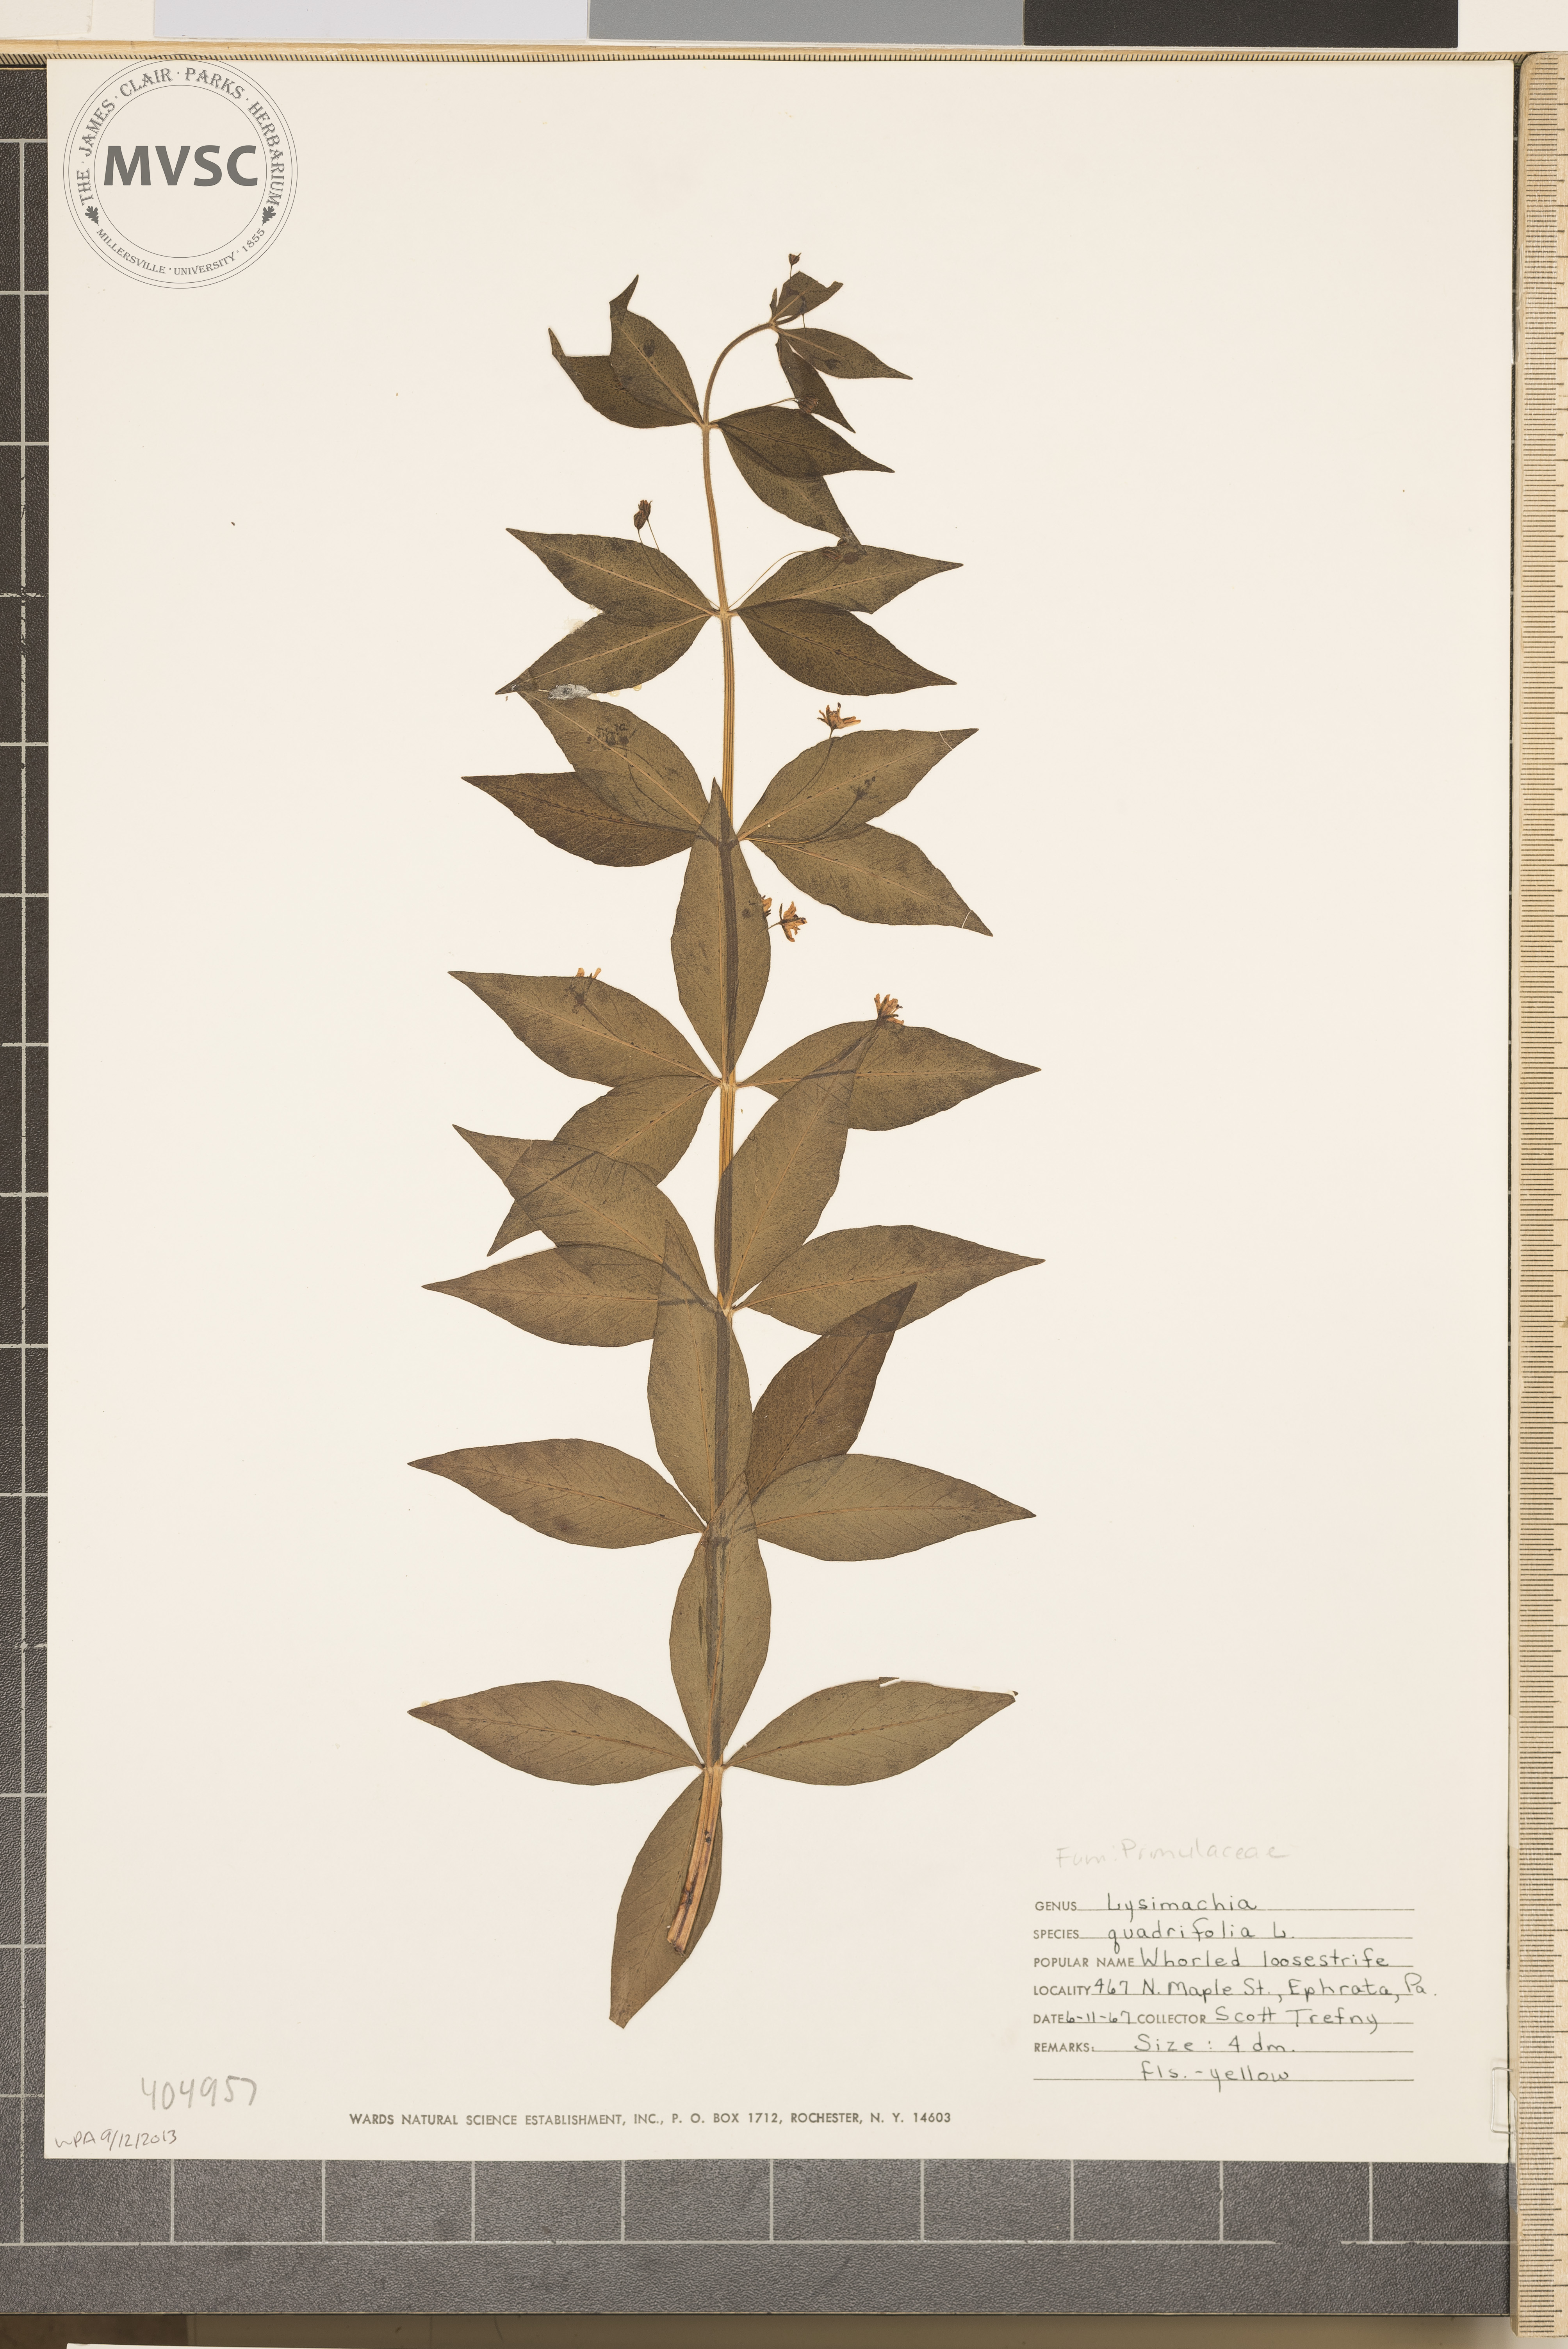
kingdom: Plantae
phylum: Tracheophyta
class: Magnoliopsida
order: Ericales
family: Primulaceae
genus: Lysimachia
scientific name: Lysimachia quadrifolia
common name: Whorled loosestrife
